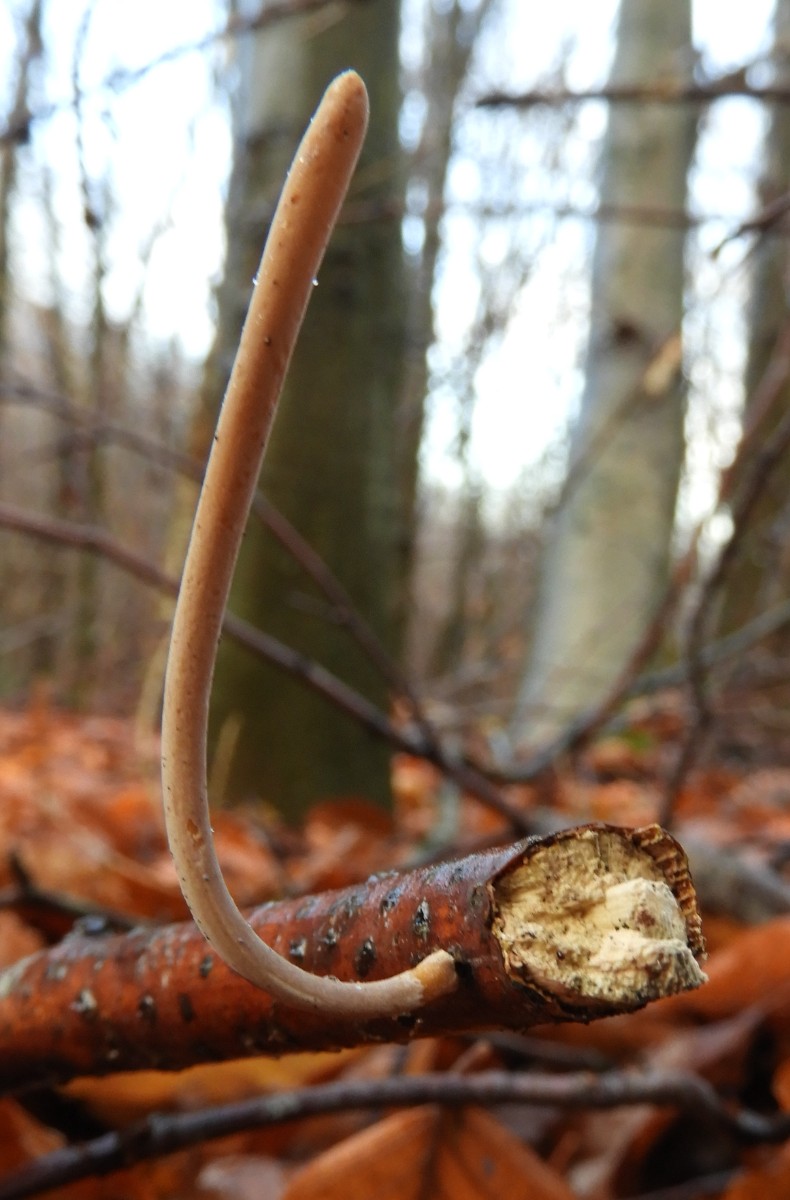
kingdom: Fungi
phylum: Basidiomycota
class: Agaricomycetes
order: Agaricales
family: Typhulaceae
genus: Typhula
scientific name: Typhula fistulosa
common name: pibet rørkølle
